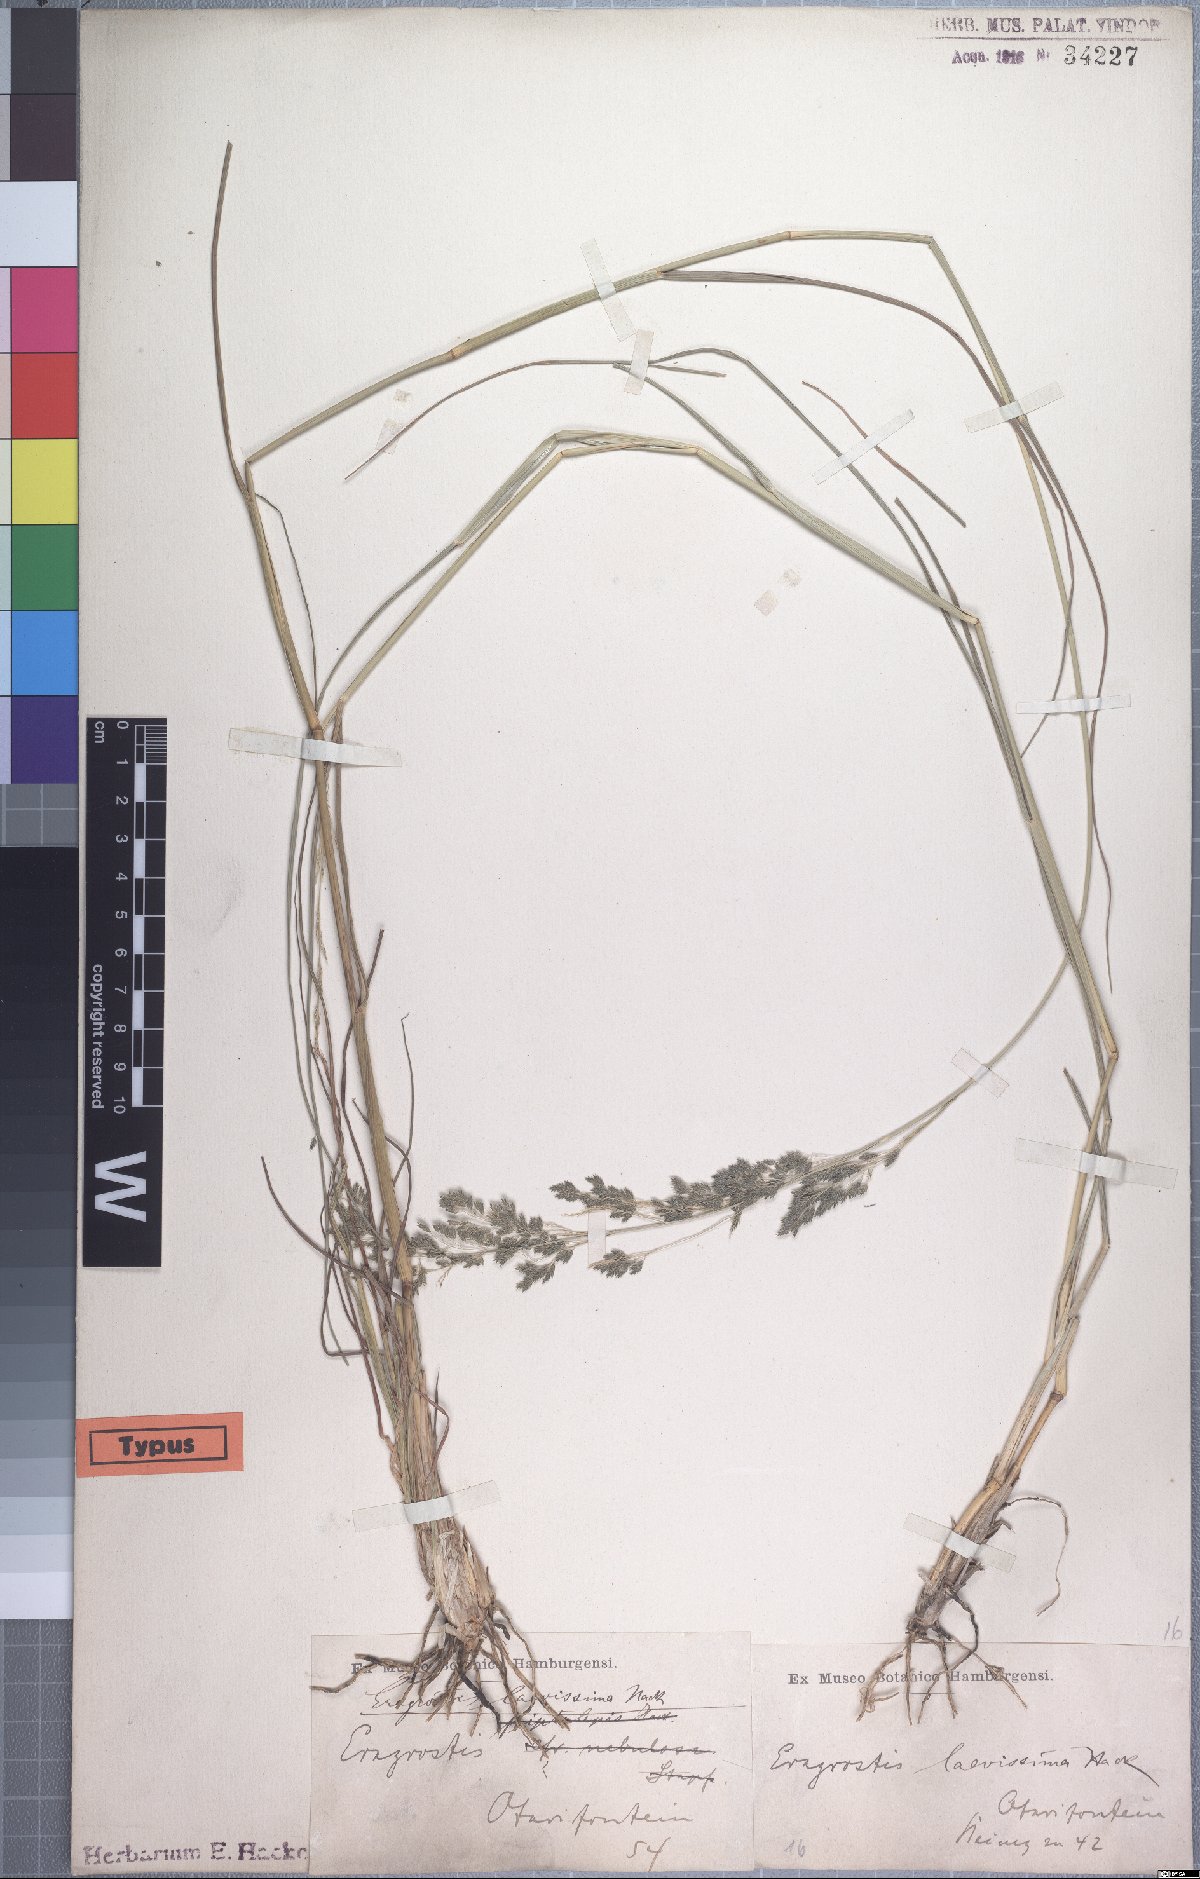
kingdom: Plantae
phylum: Tracheophyta
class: Liliopsida
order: Poales
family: Poaceae
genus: Eragrostis
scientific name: Eragrostis laevissima
